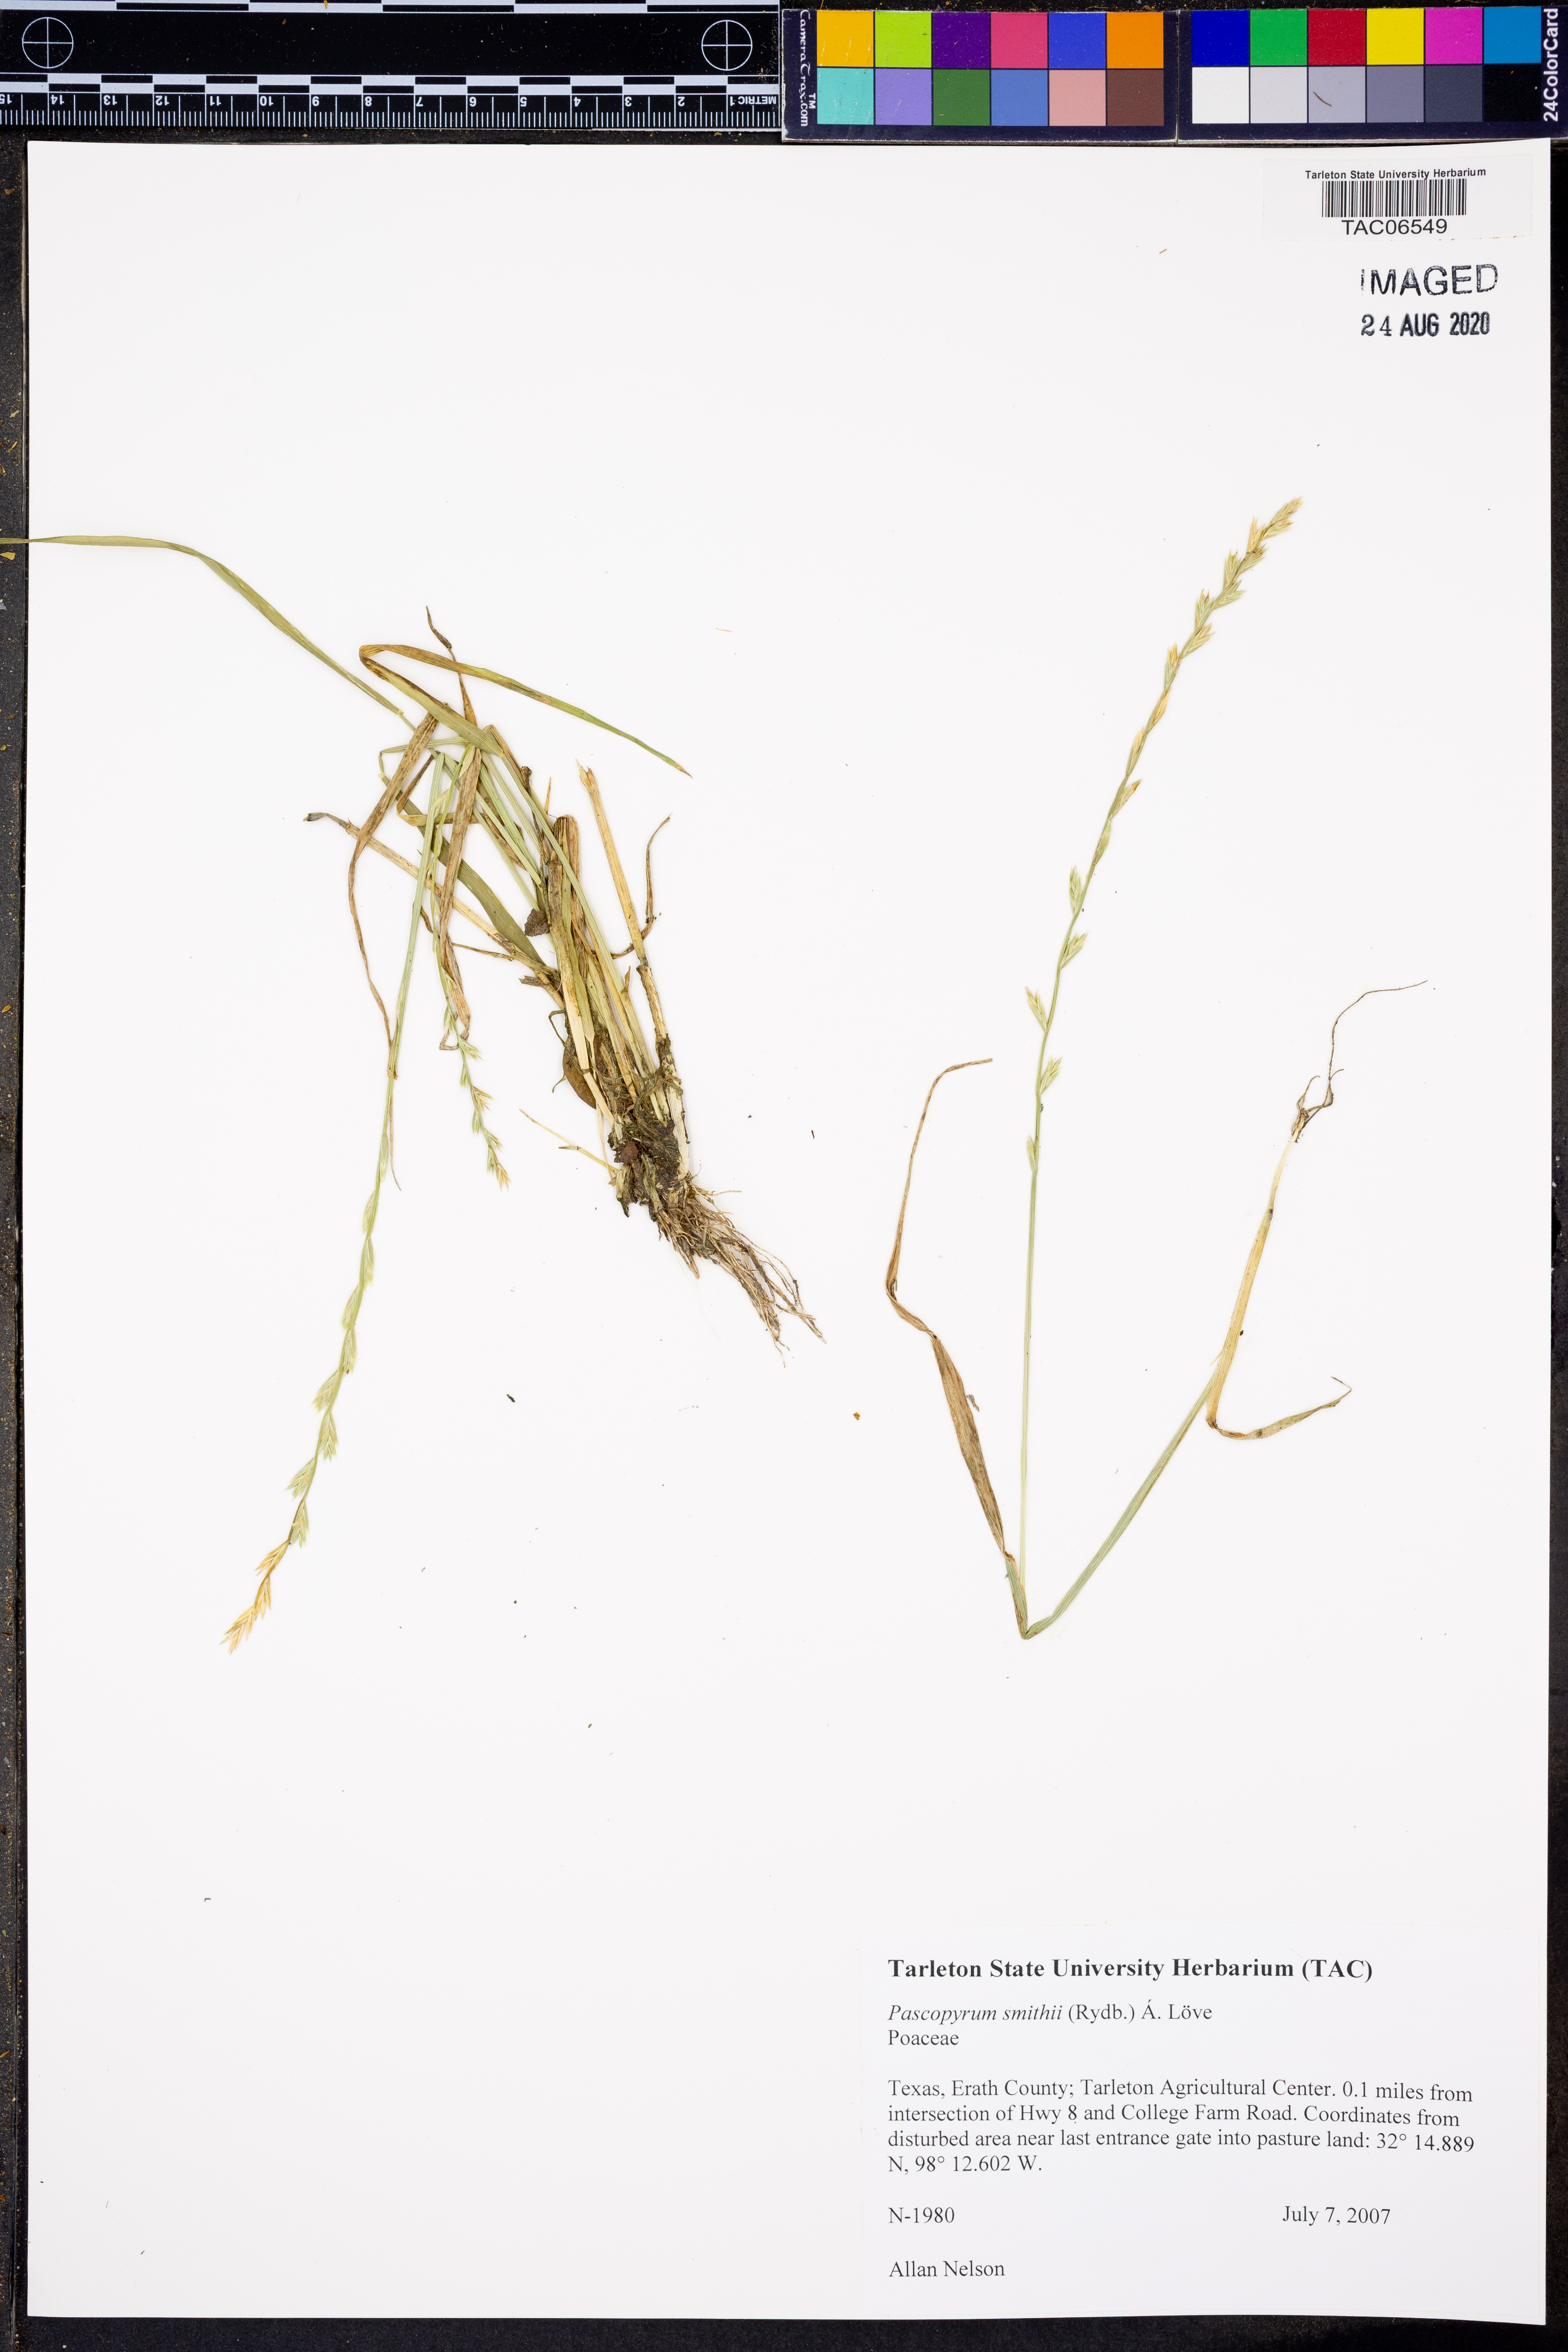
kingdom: Plantae
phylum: Tracheophyta
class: Liliopsida
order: Poales
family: Poaceae
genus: Elymus
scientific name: Elymus smithii
